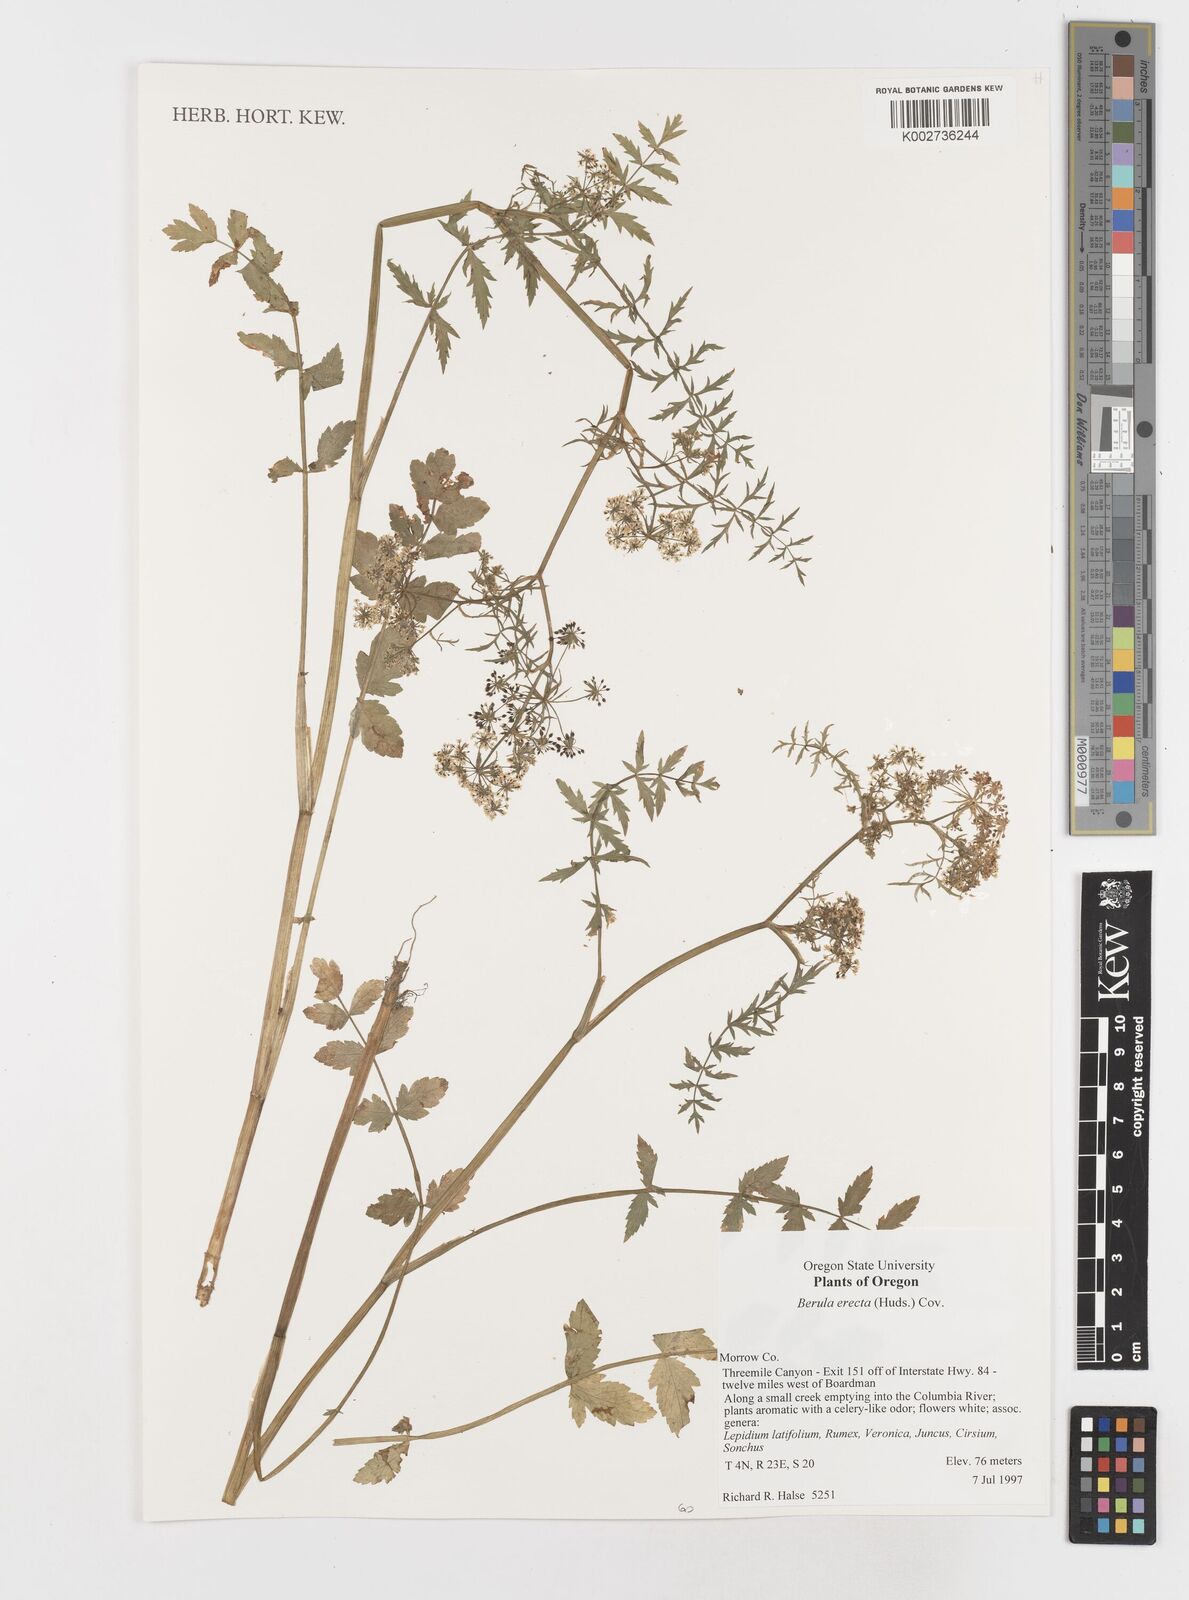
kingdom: Plantae
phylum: Tracheophyta
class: Magnoliopsida
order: Apiales
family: Apiaceae
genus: Berula
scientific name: Berula erecta
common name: Lesser water-parsnip
